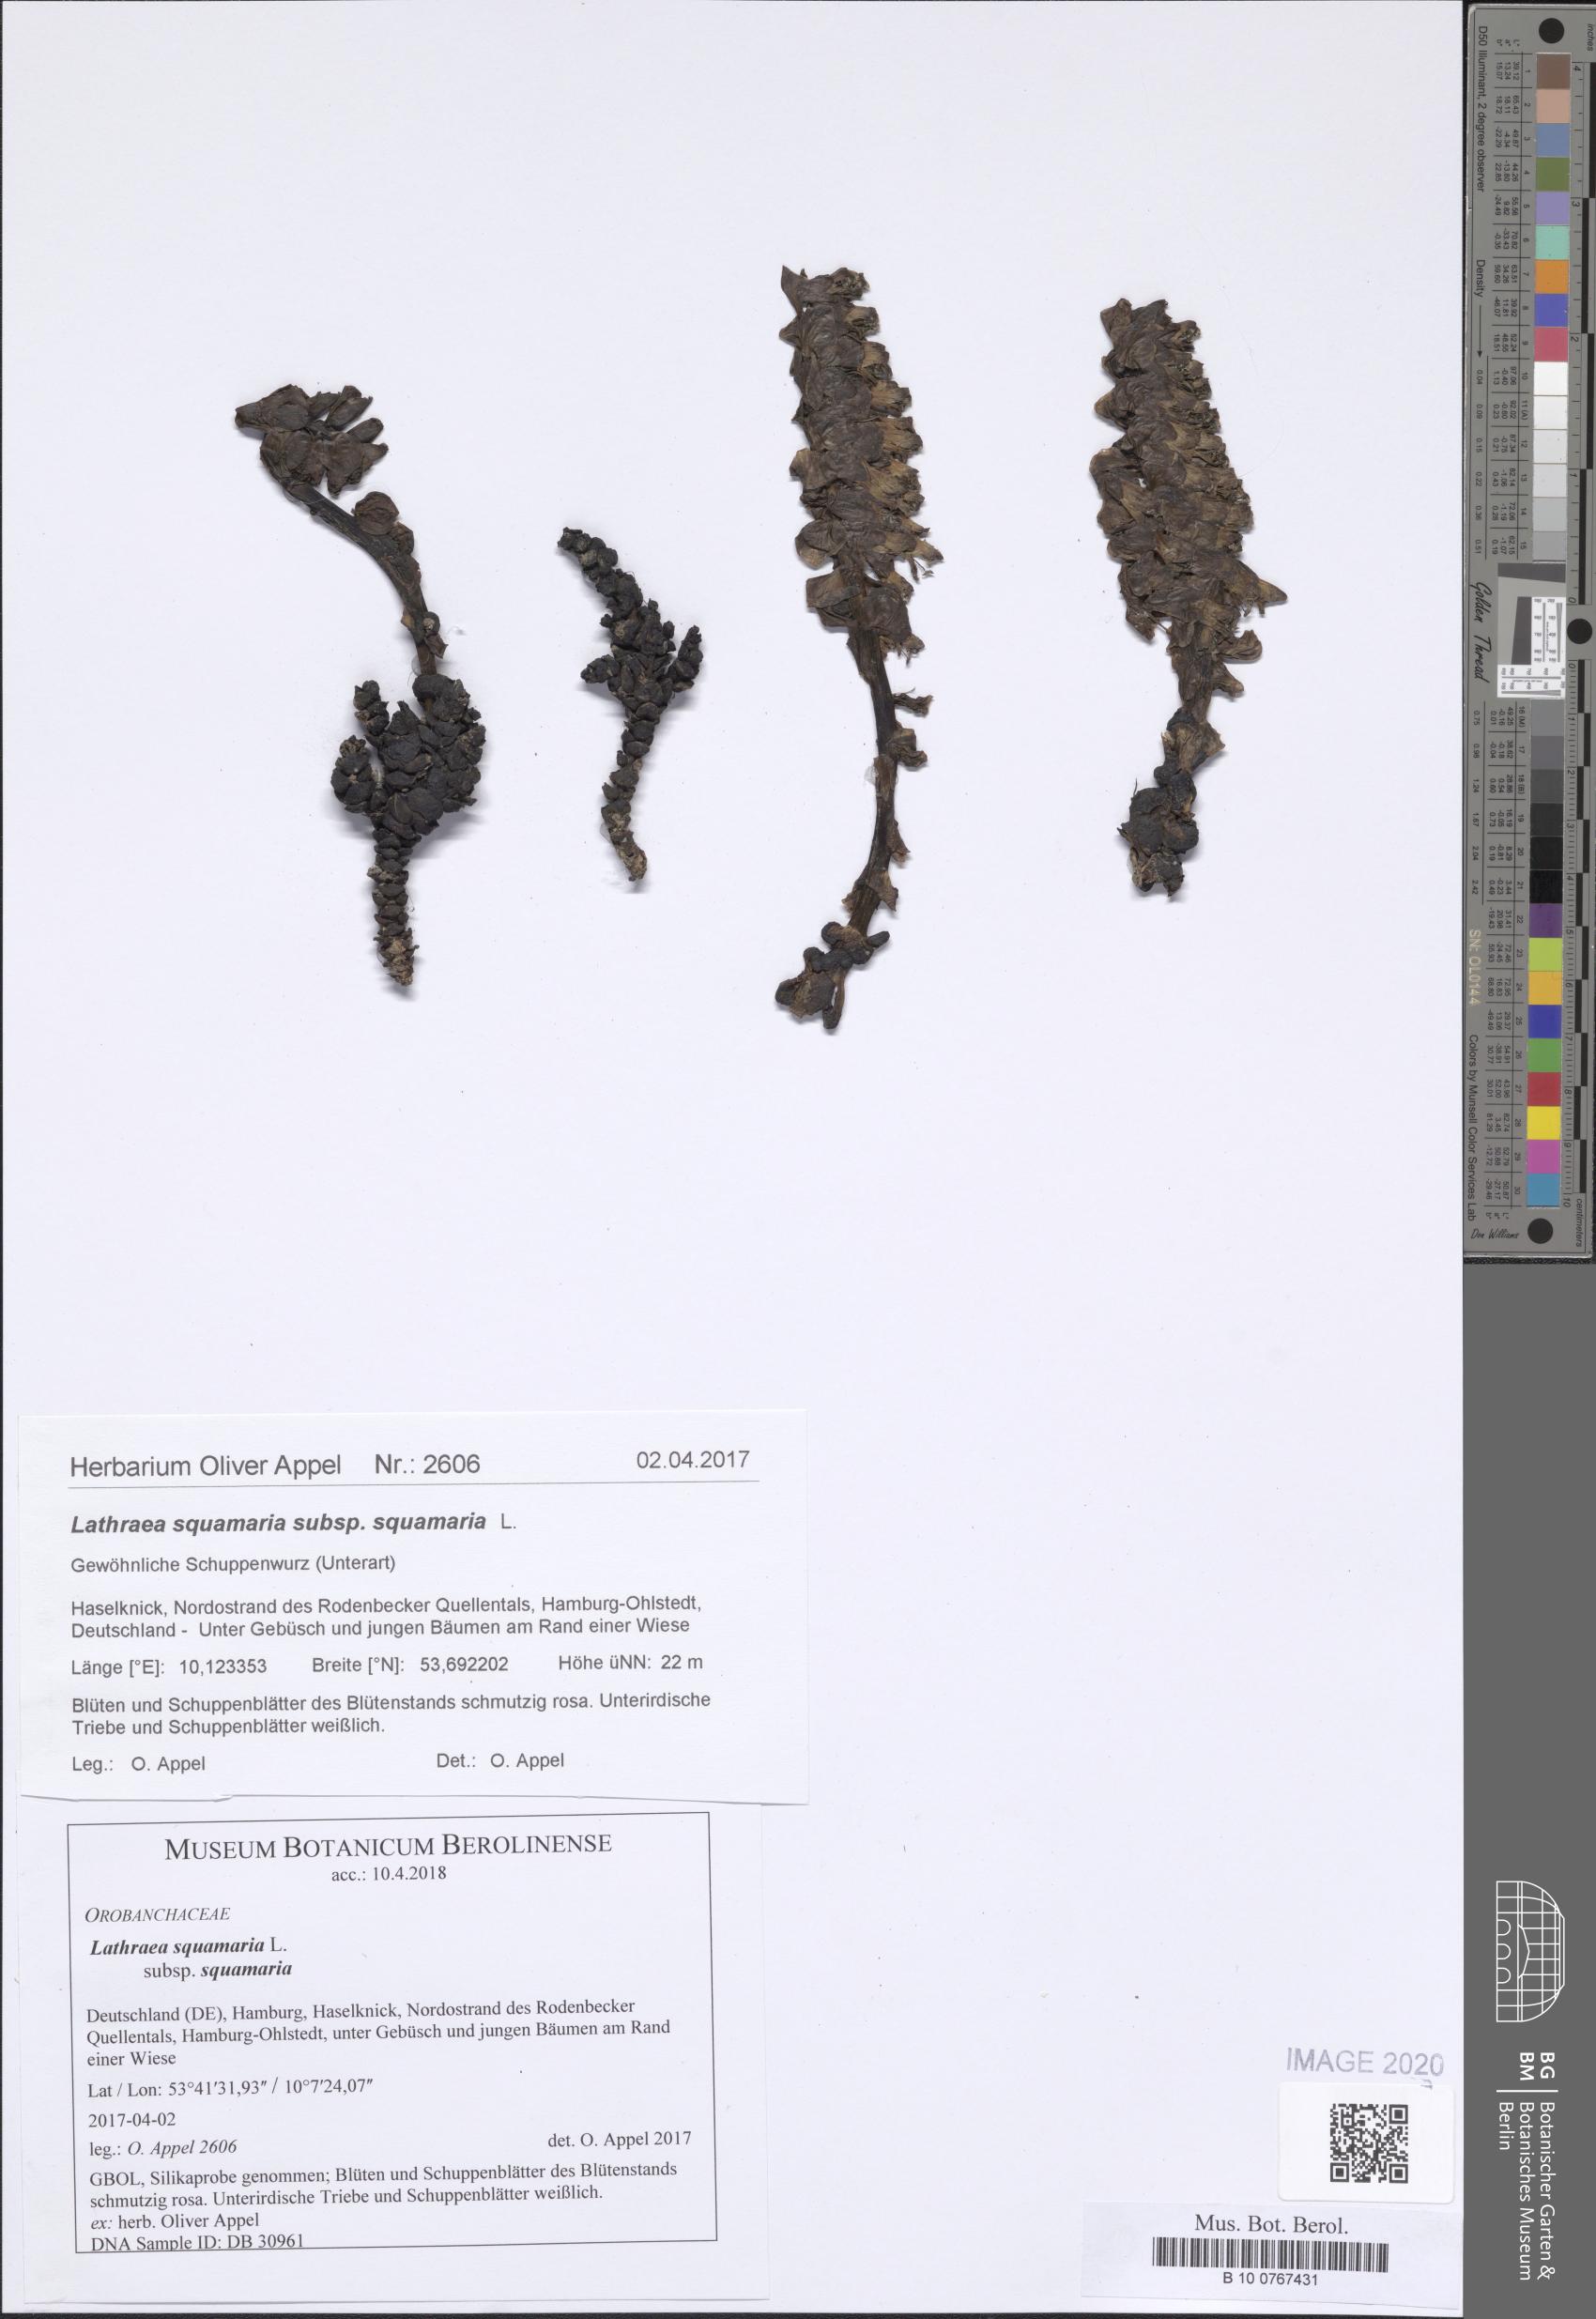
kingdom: Plantae
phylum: Tracheophyta
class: Magnoliopsida
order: Lamiales
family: Orobanchaceae
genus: Lathraea
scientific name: Lathraea squamaria
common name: Toothwort
